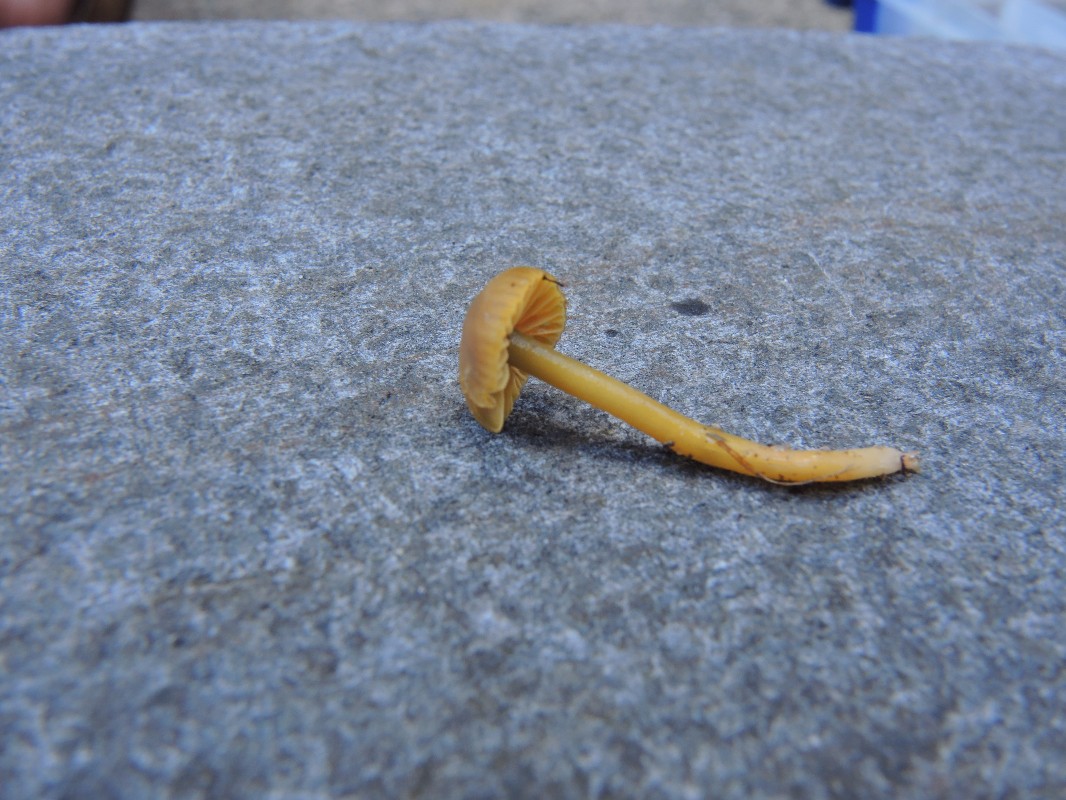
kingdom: Fungi
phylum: Basidiomycota
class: Agaricomycetes
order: Agaricales
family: Hygrophoraceae
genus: Gliophorus
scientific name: Gliophorus psittacinus
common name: papegøje-vokshat
